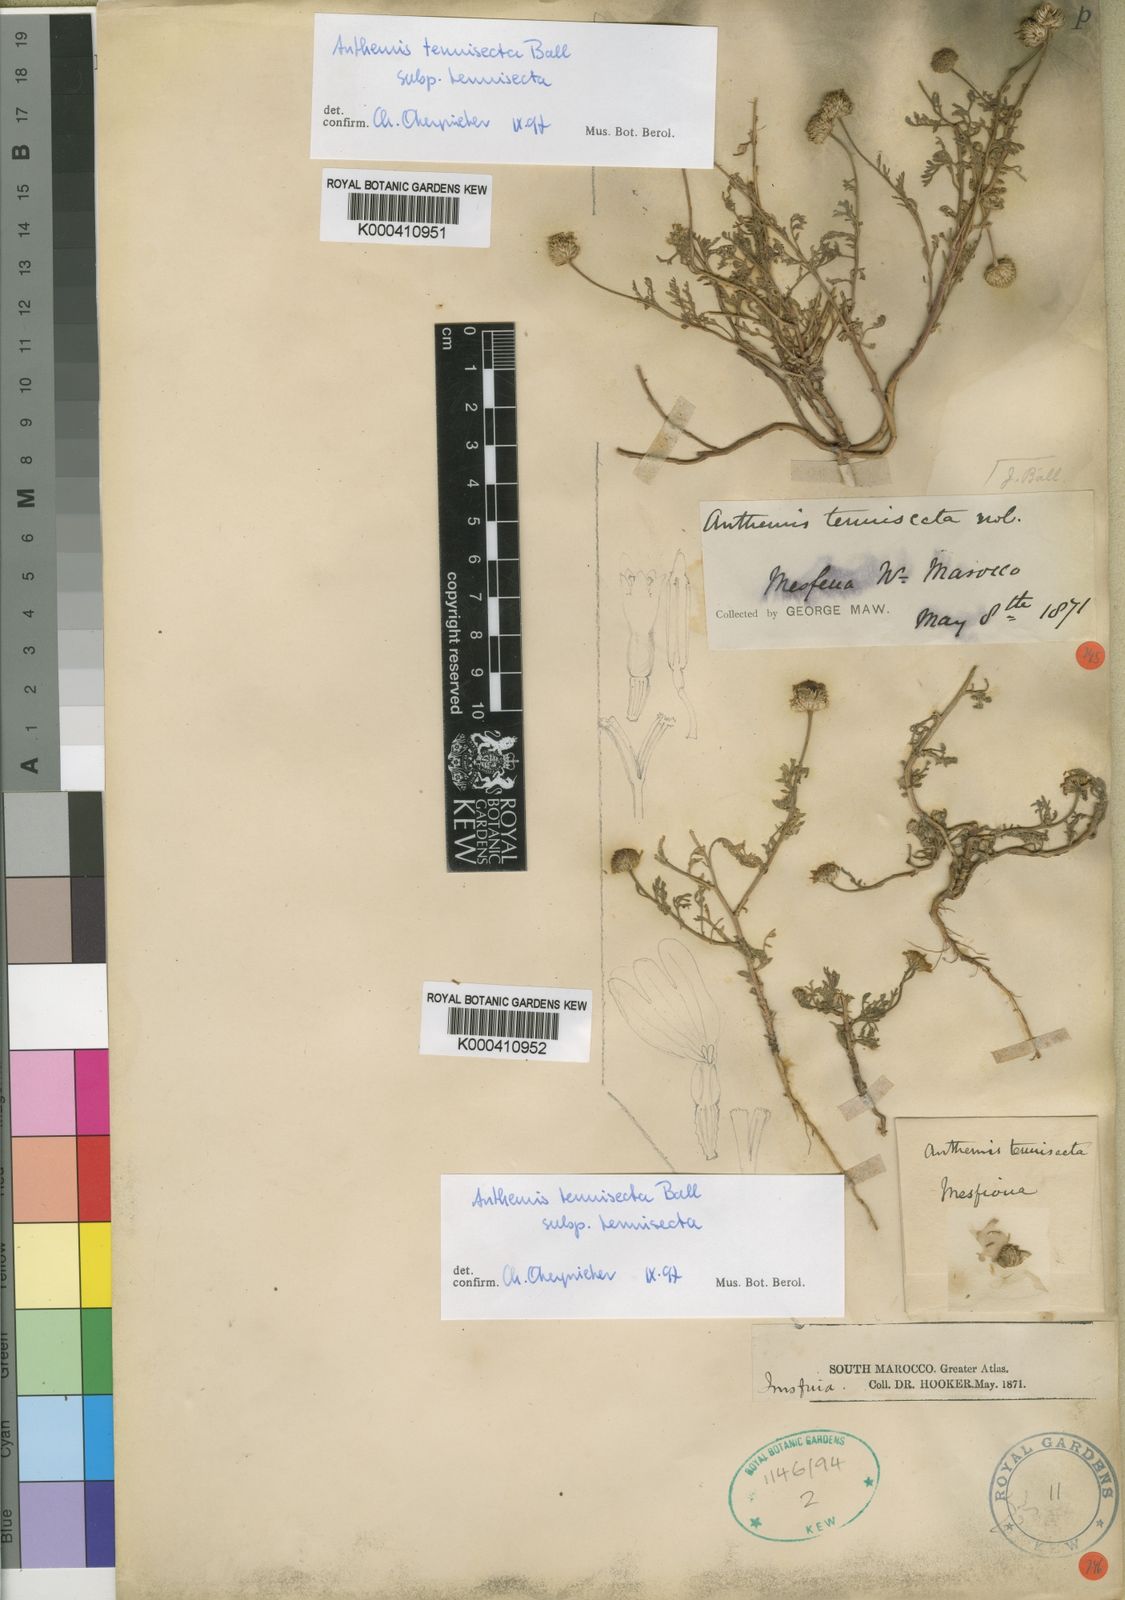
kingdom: Plantae
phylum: Tracheophyta
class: Magnoliopsida
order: Asterales
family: Asteraceae
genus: Anthemis
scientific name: Anthemis tenuisecta
